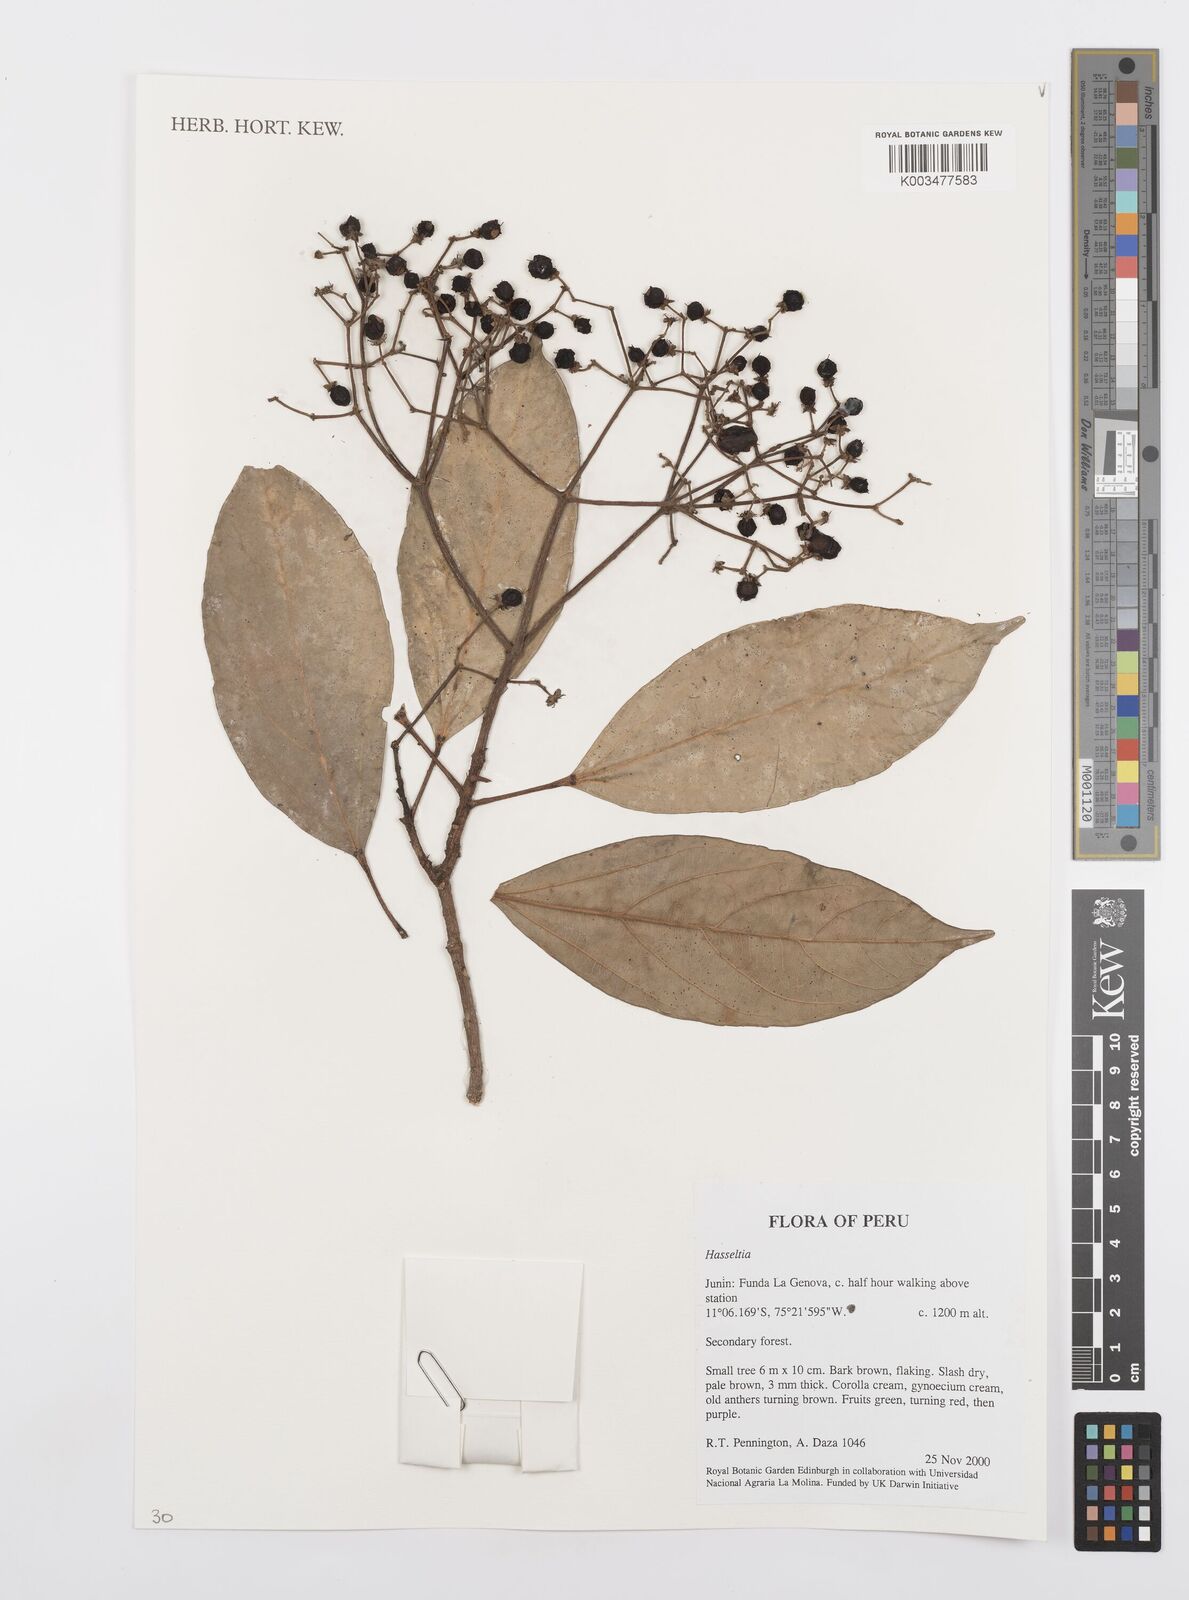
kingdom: Plantae
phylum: Tracheophyta
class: Magnoliopsida
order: Malpighiales
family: Salicaceae
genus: Hasseltia
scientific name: Hasseltia floribunda
